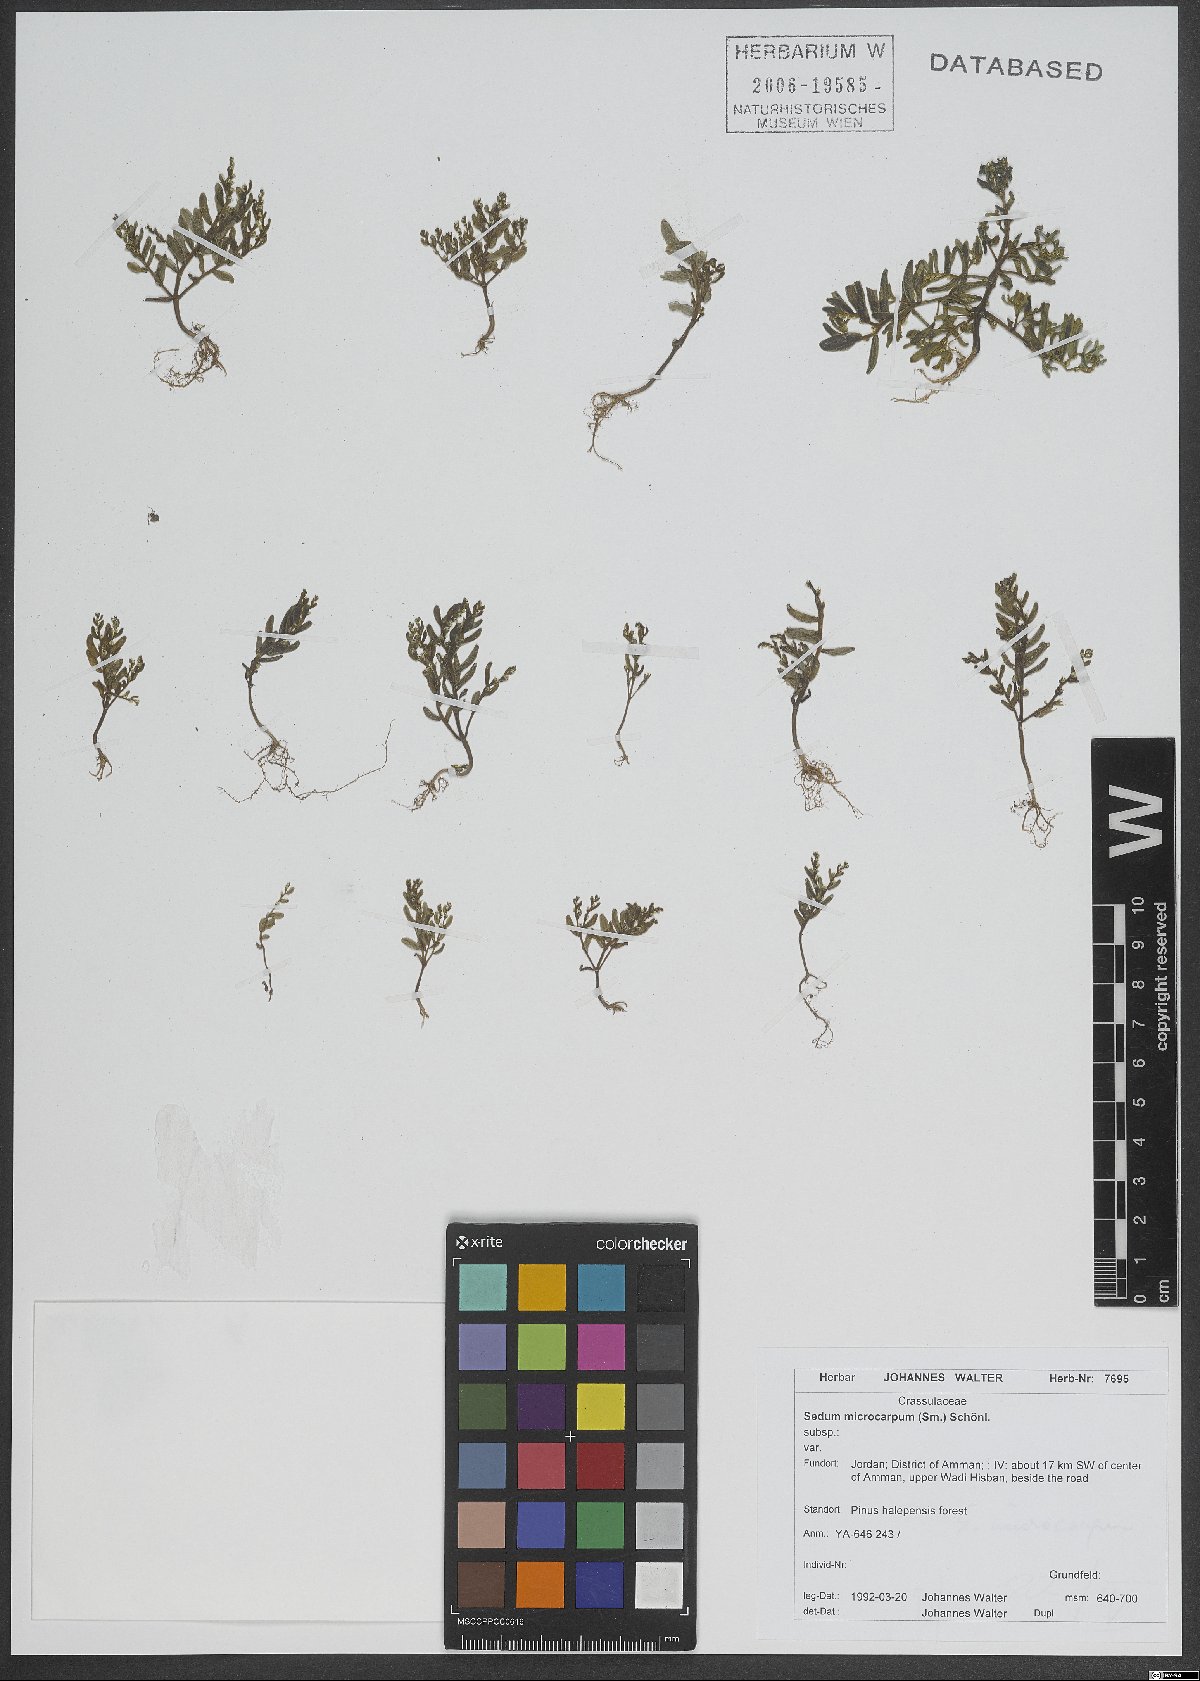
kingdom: Plantae
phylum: Tracheophyta
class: Magnoliopsida
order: Saxifragales
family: Crassulaceae
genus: Sedum
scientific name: Sedum microcarpum
